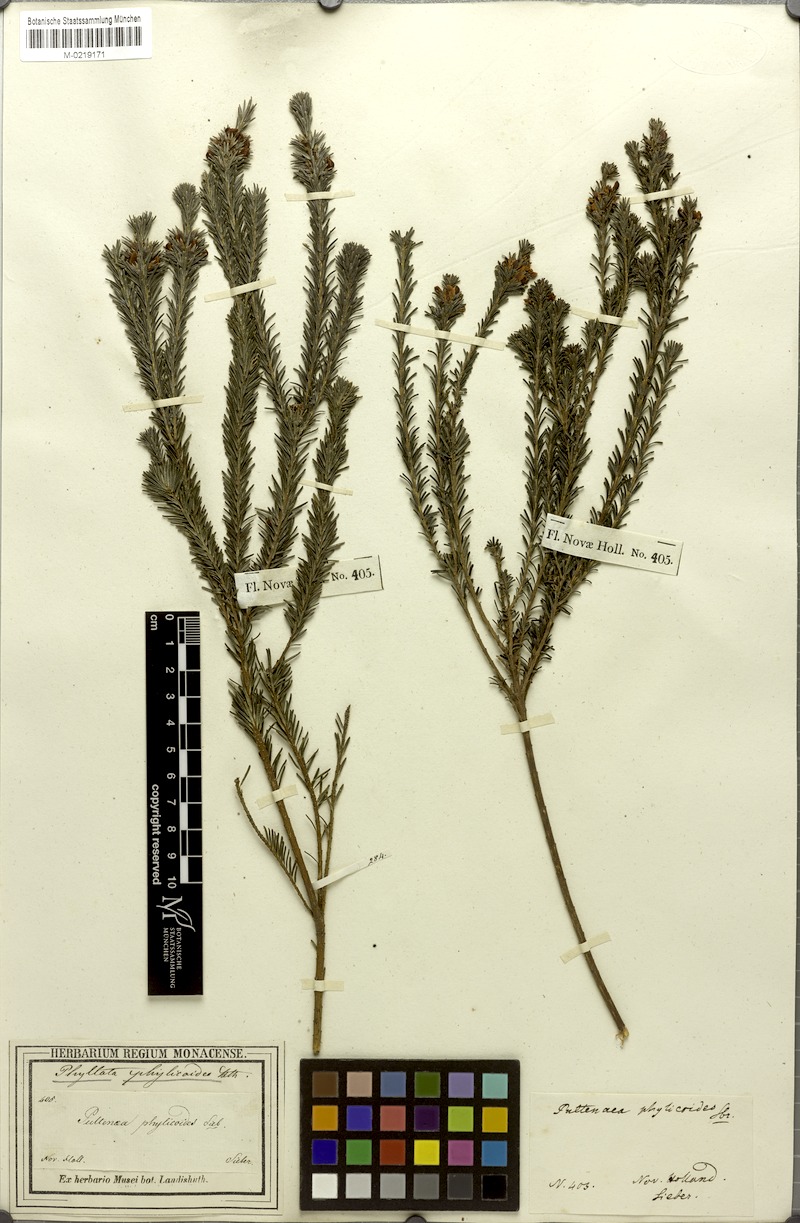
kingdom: Plantae
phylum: Tracheophyta
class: Magnoliopsida
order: Fabales
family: Fabaceae
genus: Phyllota
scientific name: Phyllota phylicoides
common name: Heath phyllota
